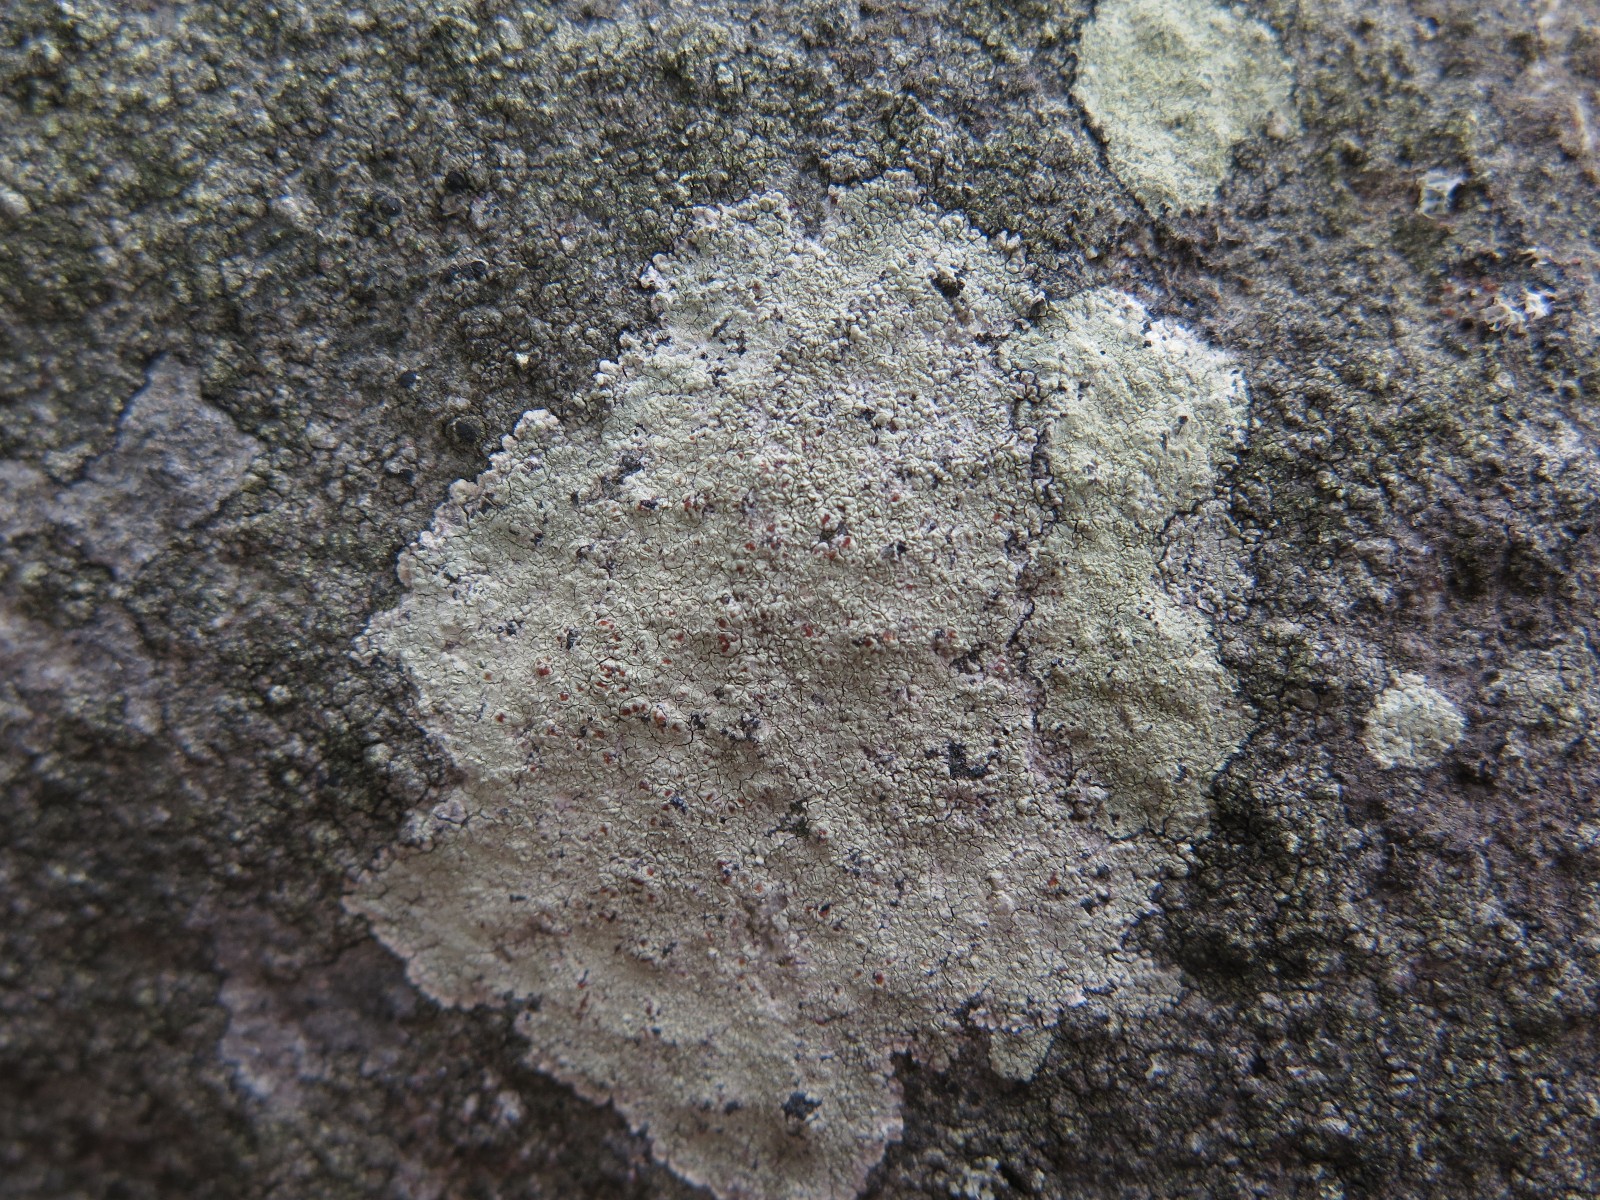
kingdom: Fungi
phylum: Ascomycota
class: Lecanoromycetes
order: Lecanorales
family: Haematommataceae
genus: Haematomma
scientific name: Haematomma ochroleucum
